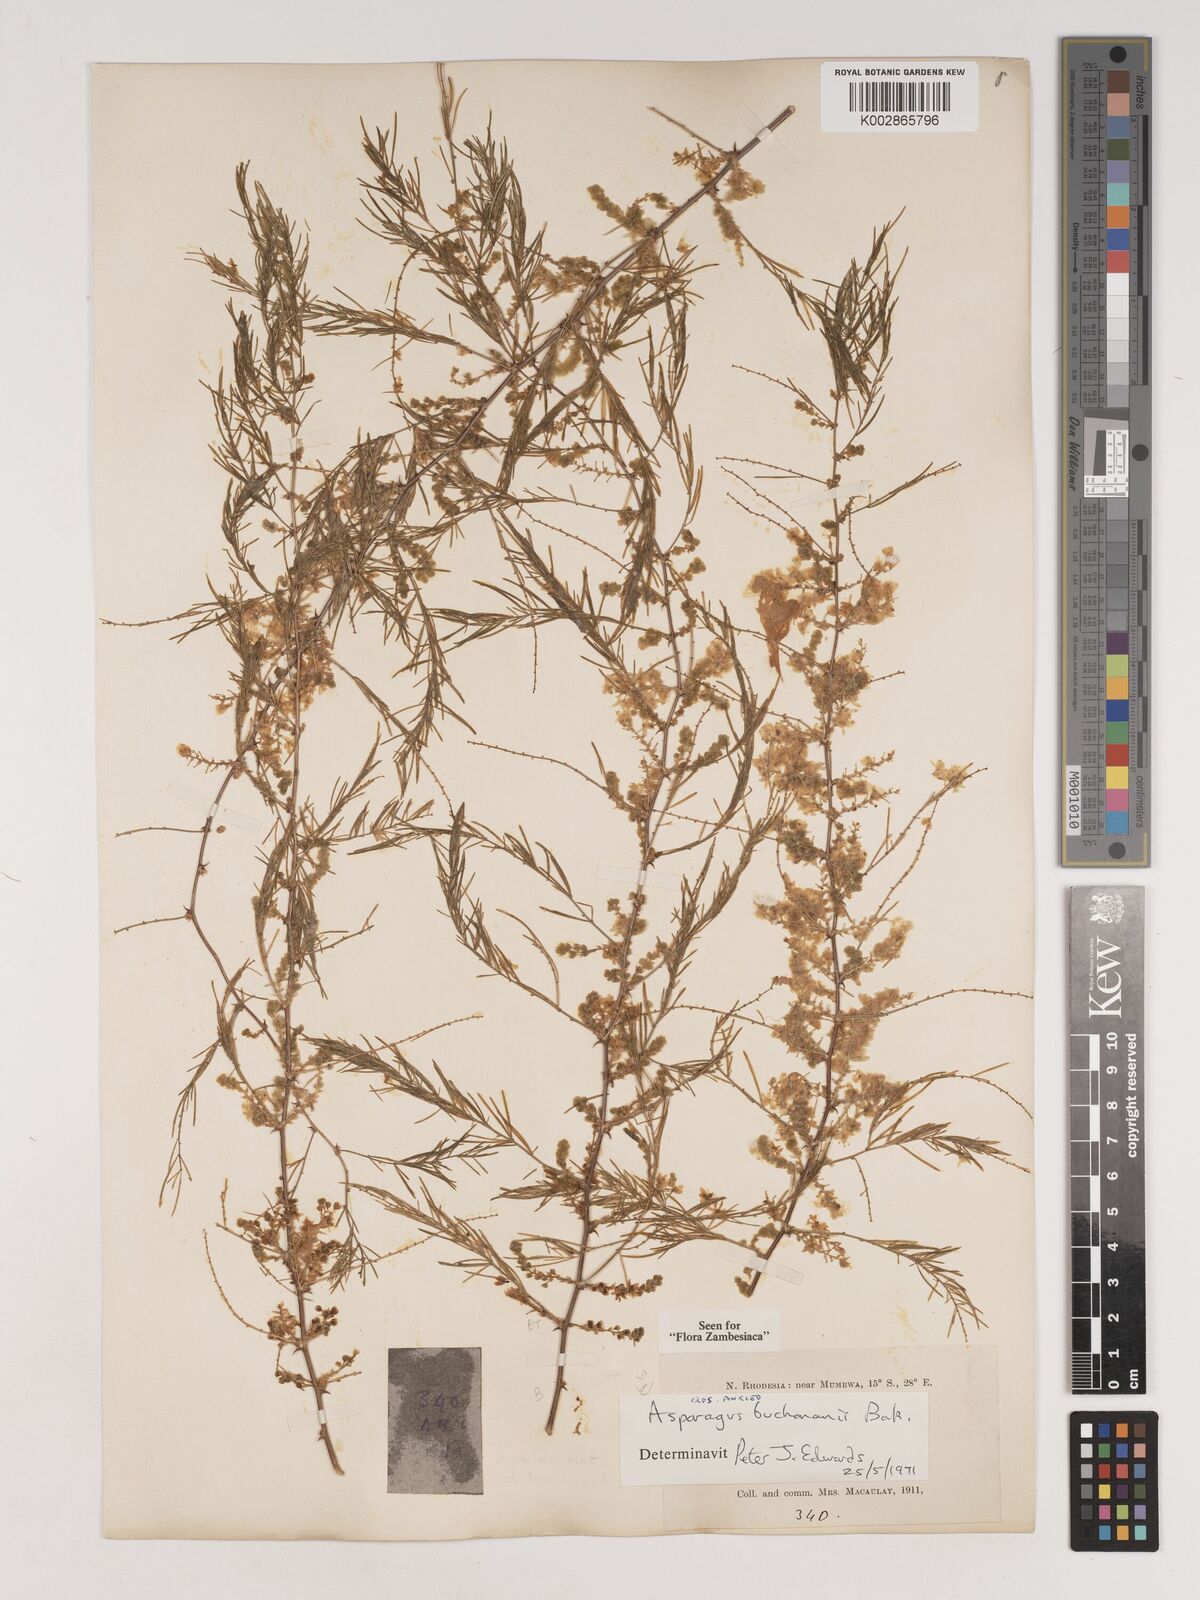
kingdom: Plantae
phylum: Tracheophyta
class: Liliopsida
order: Asparagales
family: Asparagaceae
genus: Asparagus
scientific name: Asparagus buchananii
